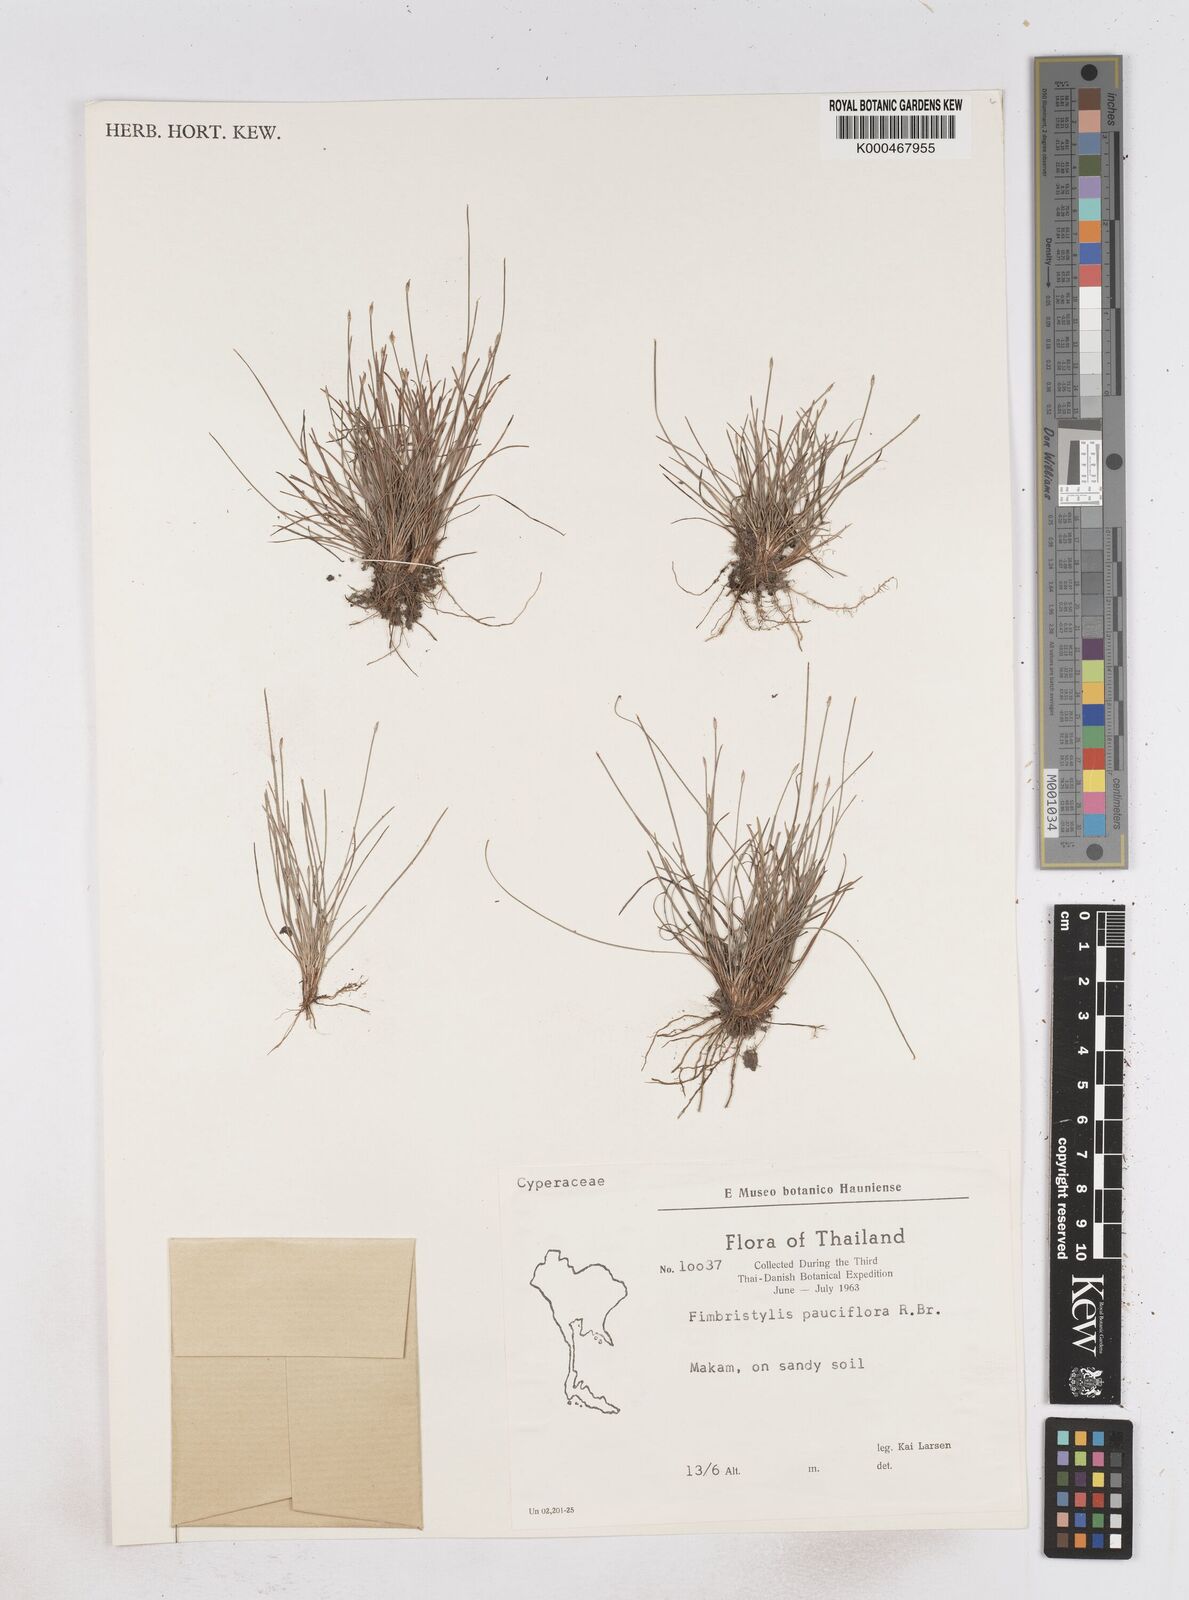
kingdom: Plantae
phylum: Tracheophyta
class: Liliopsida
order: Poales
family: Cyperaceae
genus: Fimbristylis
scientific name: Fimbristylis pauciflora
